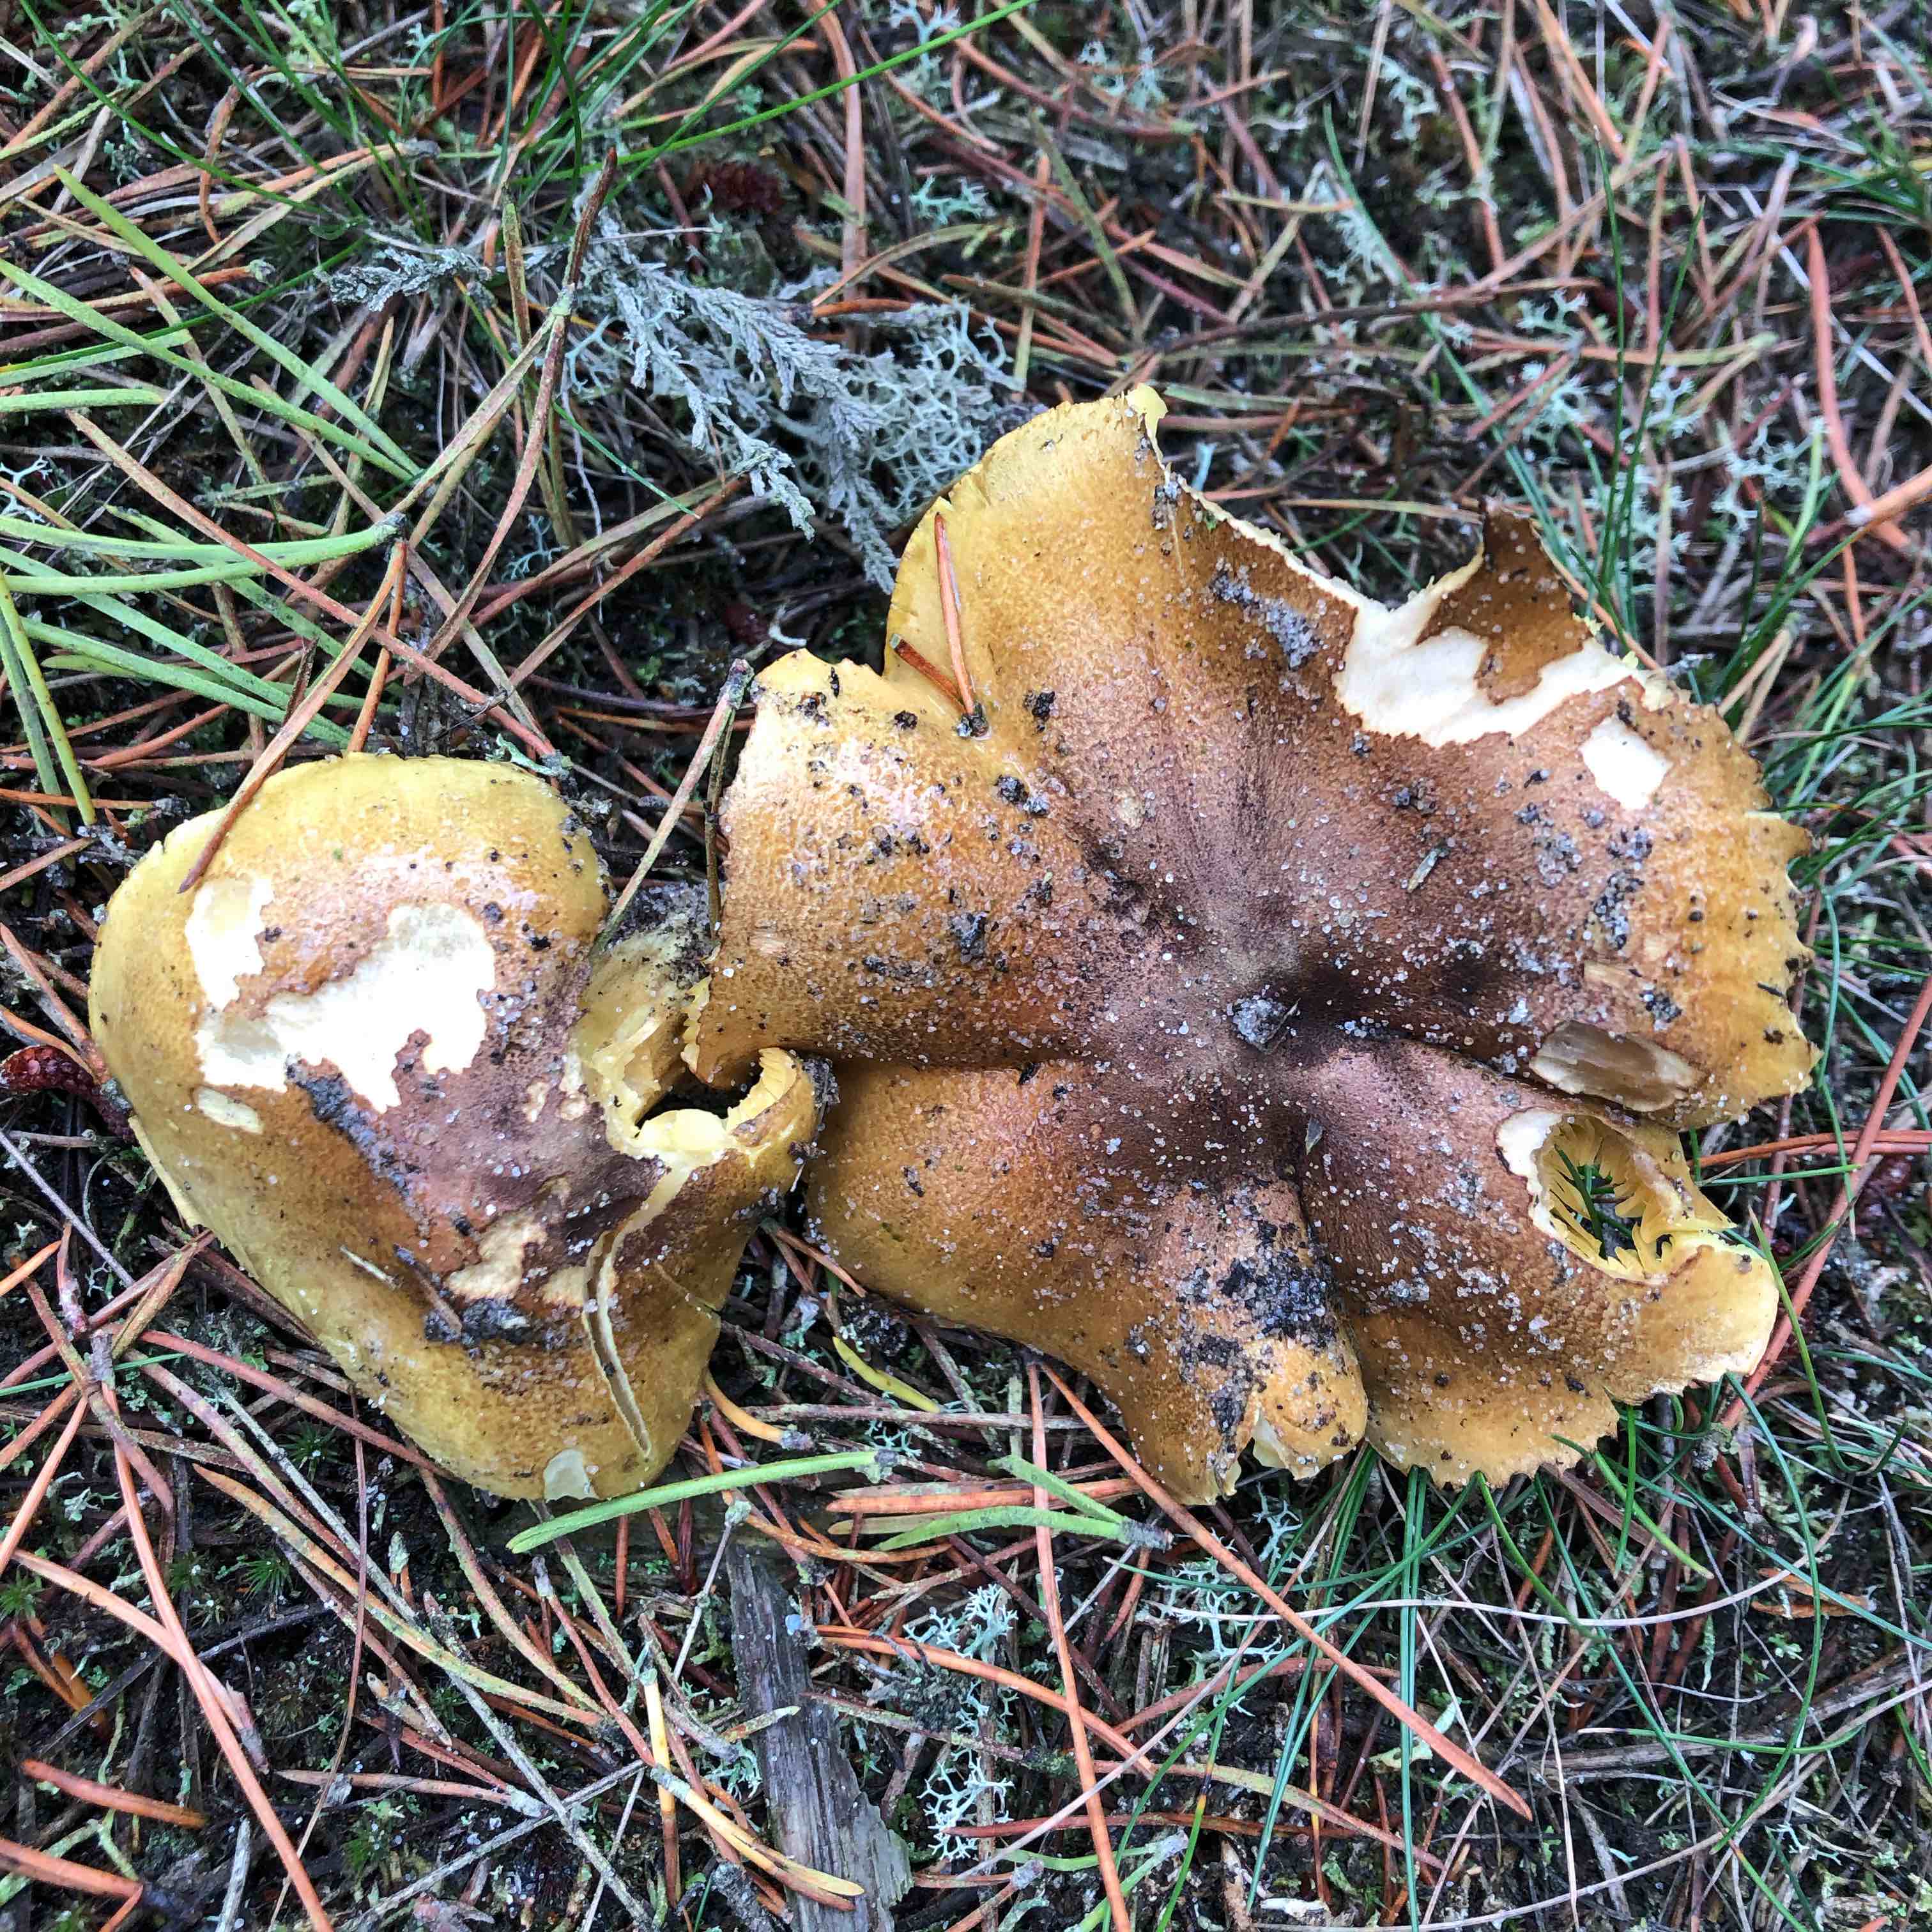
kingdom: Fungi
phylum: Basidiomycota
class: Agaricomycetes
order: Agaricales
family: Tricholomataceae
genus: Tricholoma
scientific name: Tricholoma equestre
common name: ægte ridderhat
